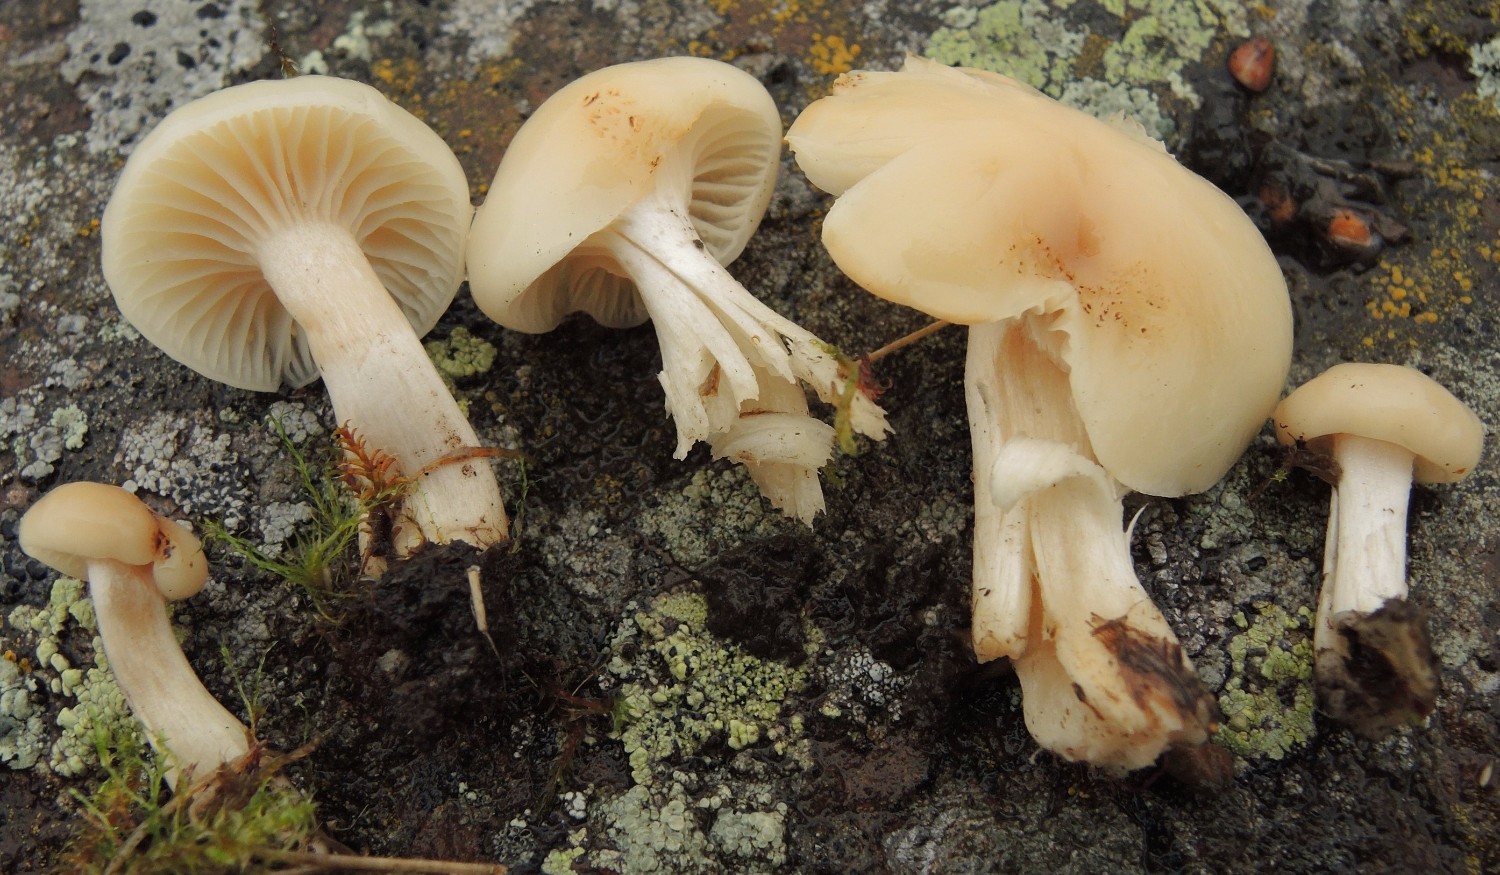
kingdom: Fungi
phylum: Basidiomycota
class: Agaricomycetes
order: Agaricales
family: Hygrophoraceae
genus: Cuphophyllus
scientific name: Cuphophyllus virgineus
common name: snehvid vokshat
